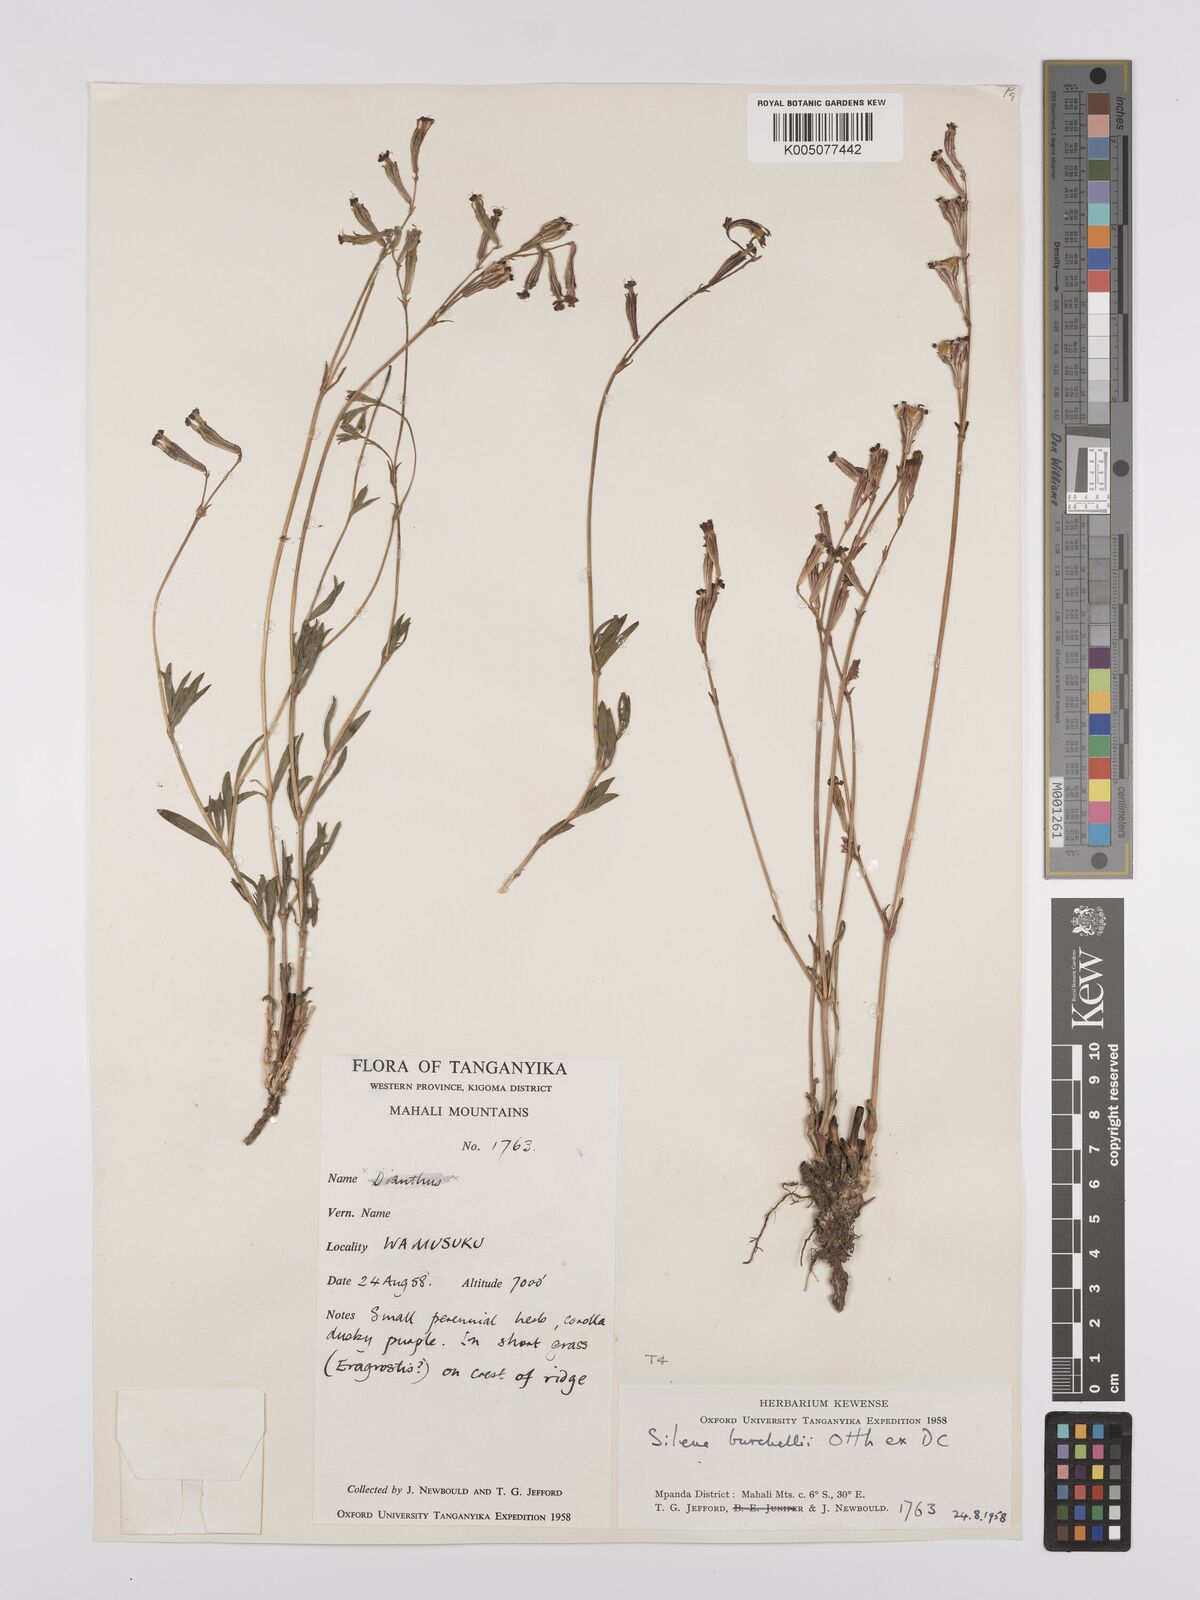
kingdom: Plantae
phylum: Tracheophyta
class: Magnoliopsida
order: Caryophyllales
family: Caryophyllaceae
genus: Silene
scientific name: Silene burchellii
